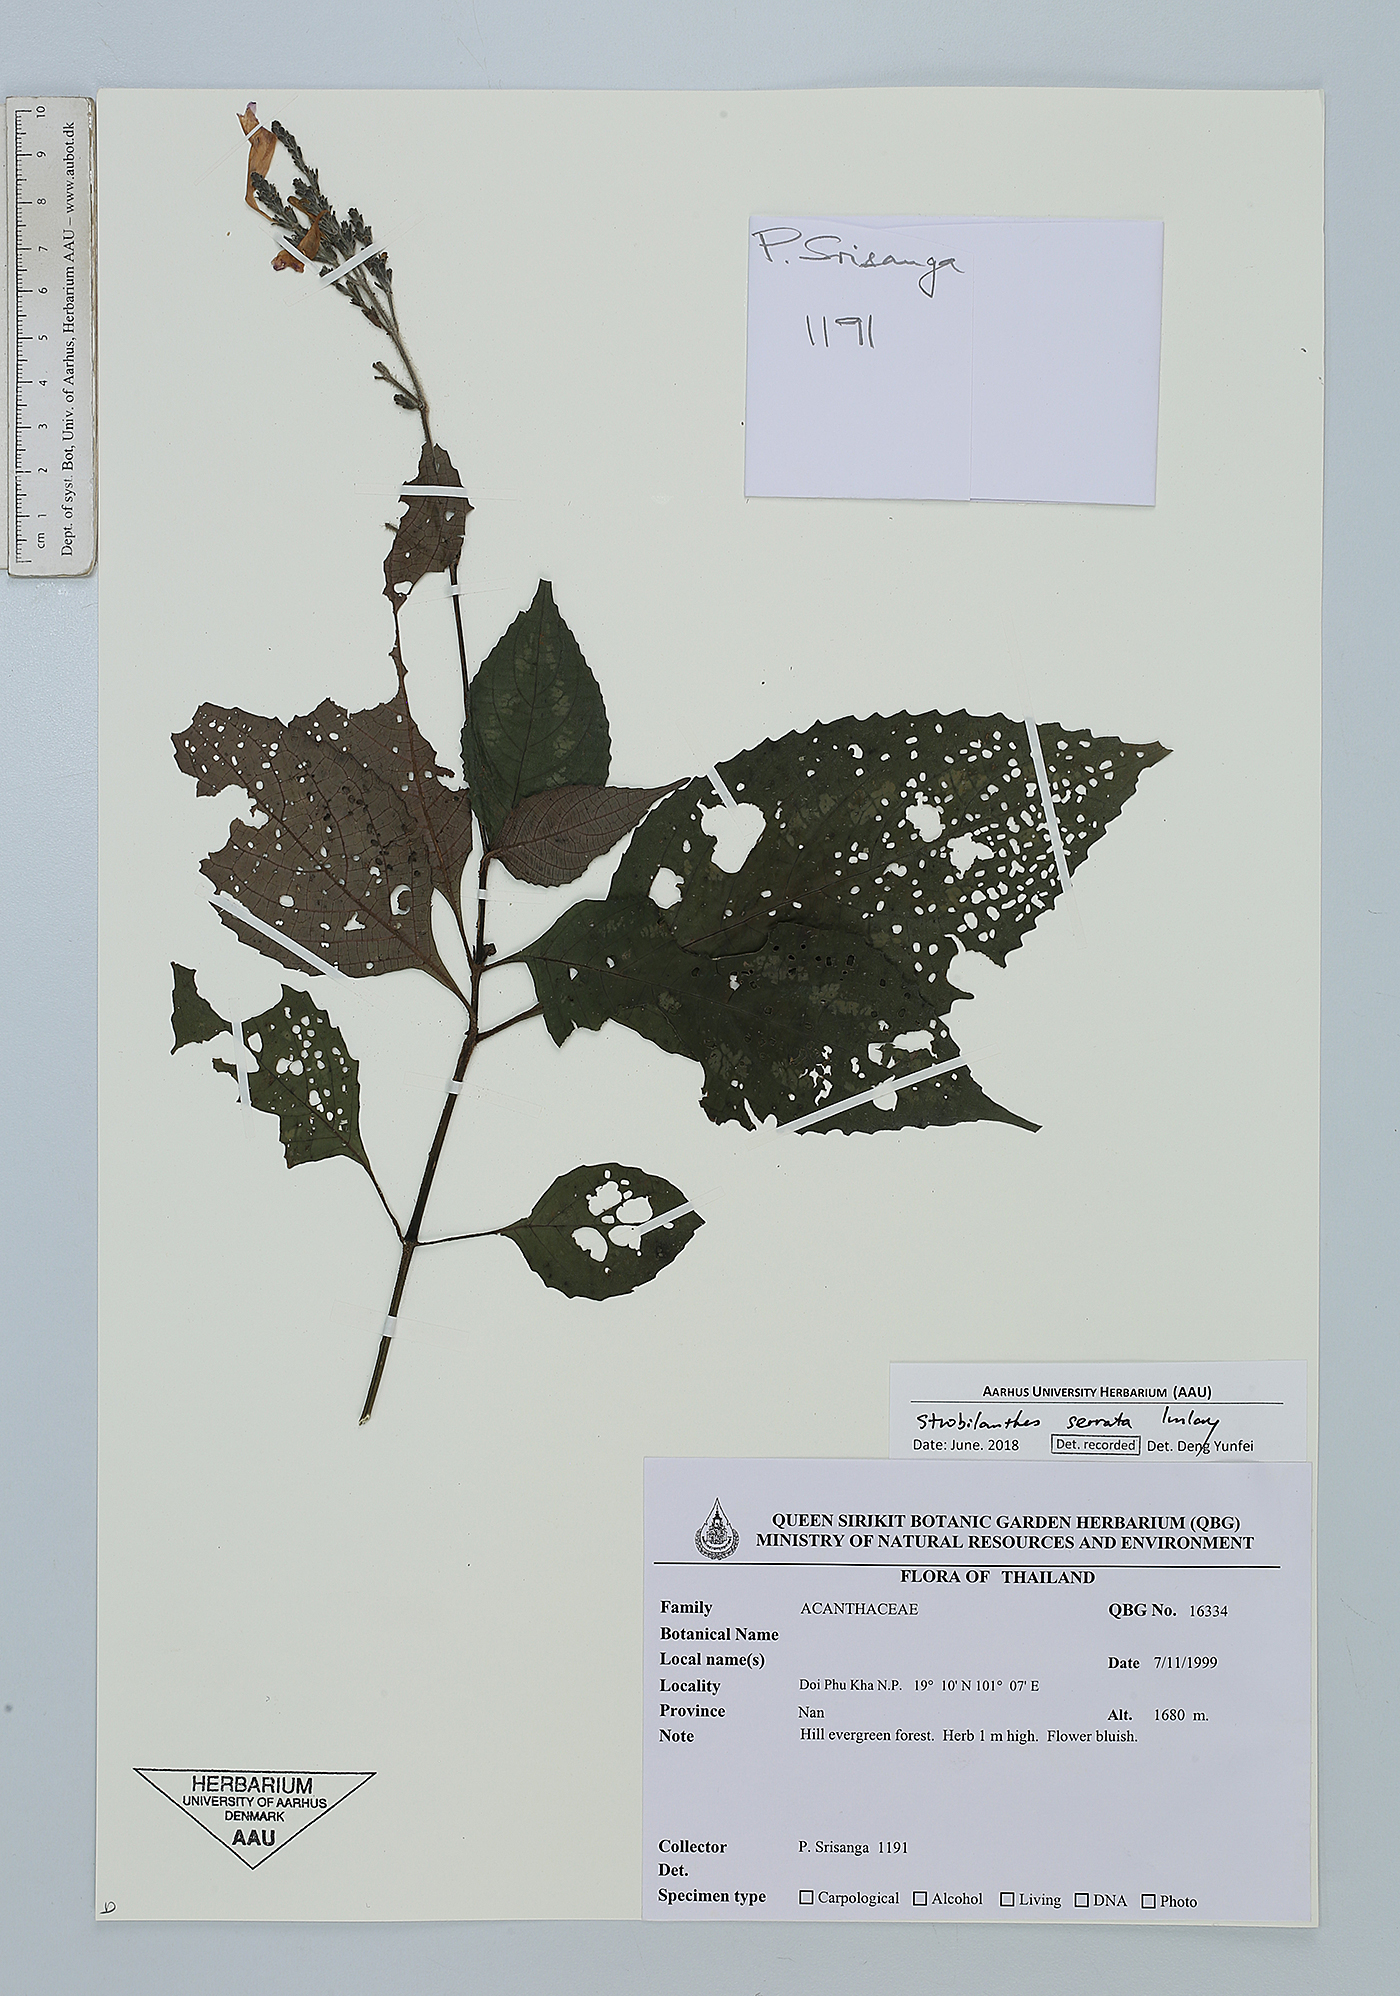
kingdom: Plantae
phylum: Tracheophyta
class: Magnoliopsida
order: Lamiales
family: Acanthaceae
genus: Strobilanthes
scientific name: Strobilanthes serrata
